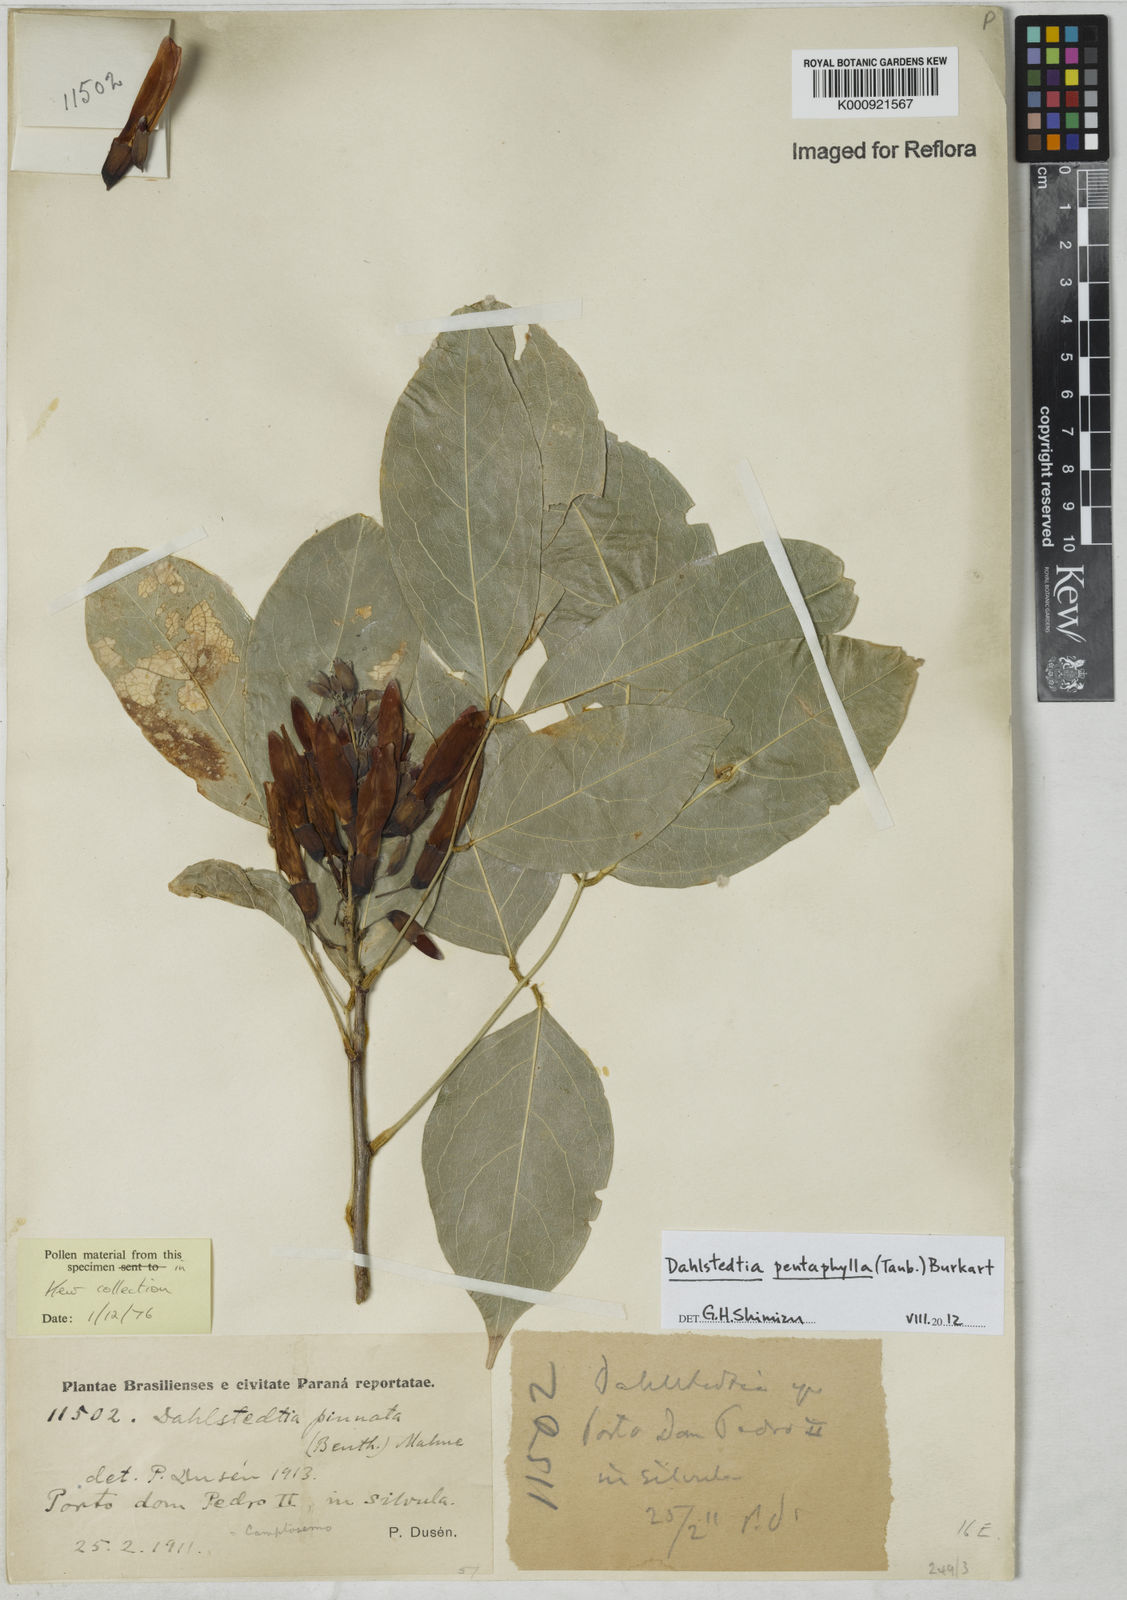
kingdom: Plantae
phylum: Tracheophyta
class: Magnoliopsida
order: Fabales
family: Fabaceae
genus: Dahlstedtia
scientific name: Dahlstedtia pentaphylla
